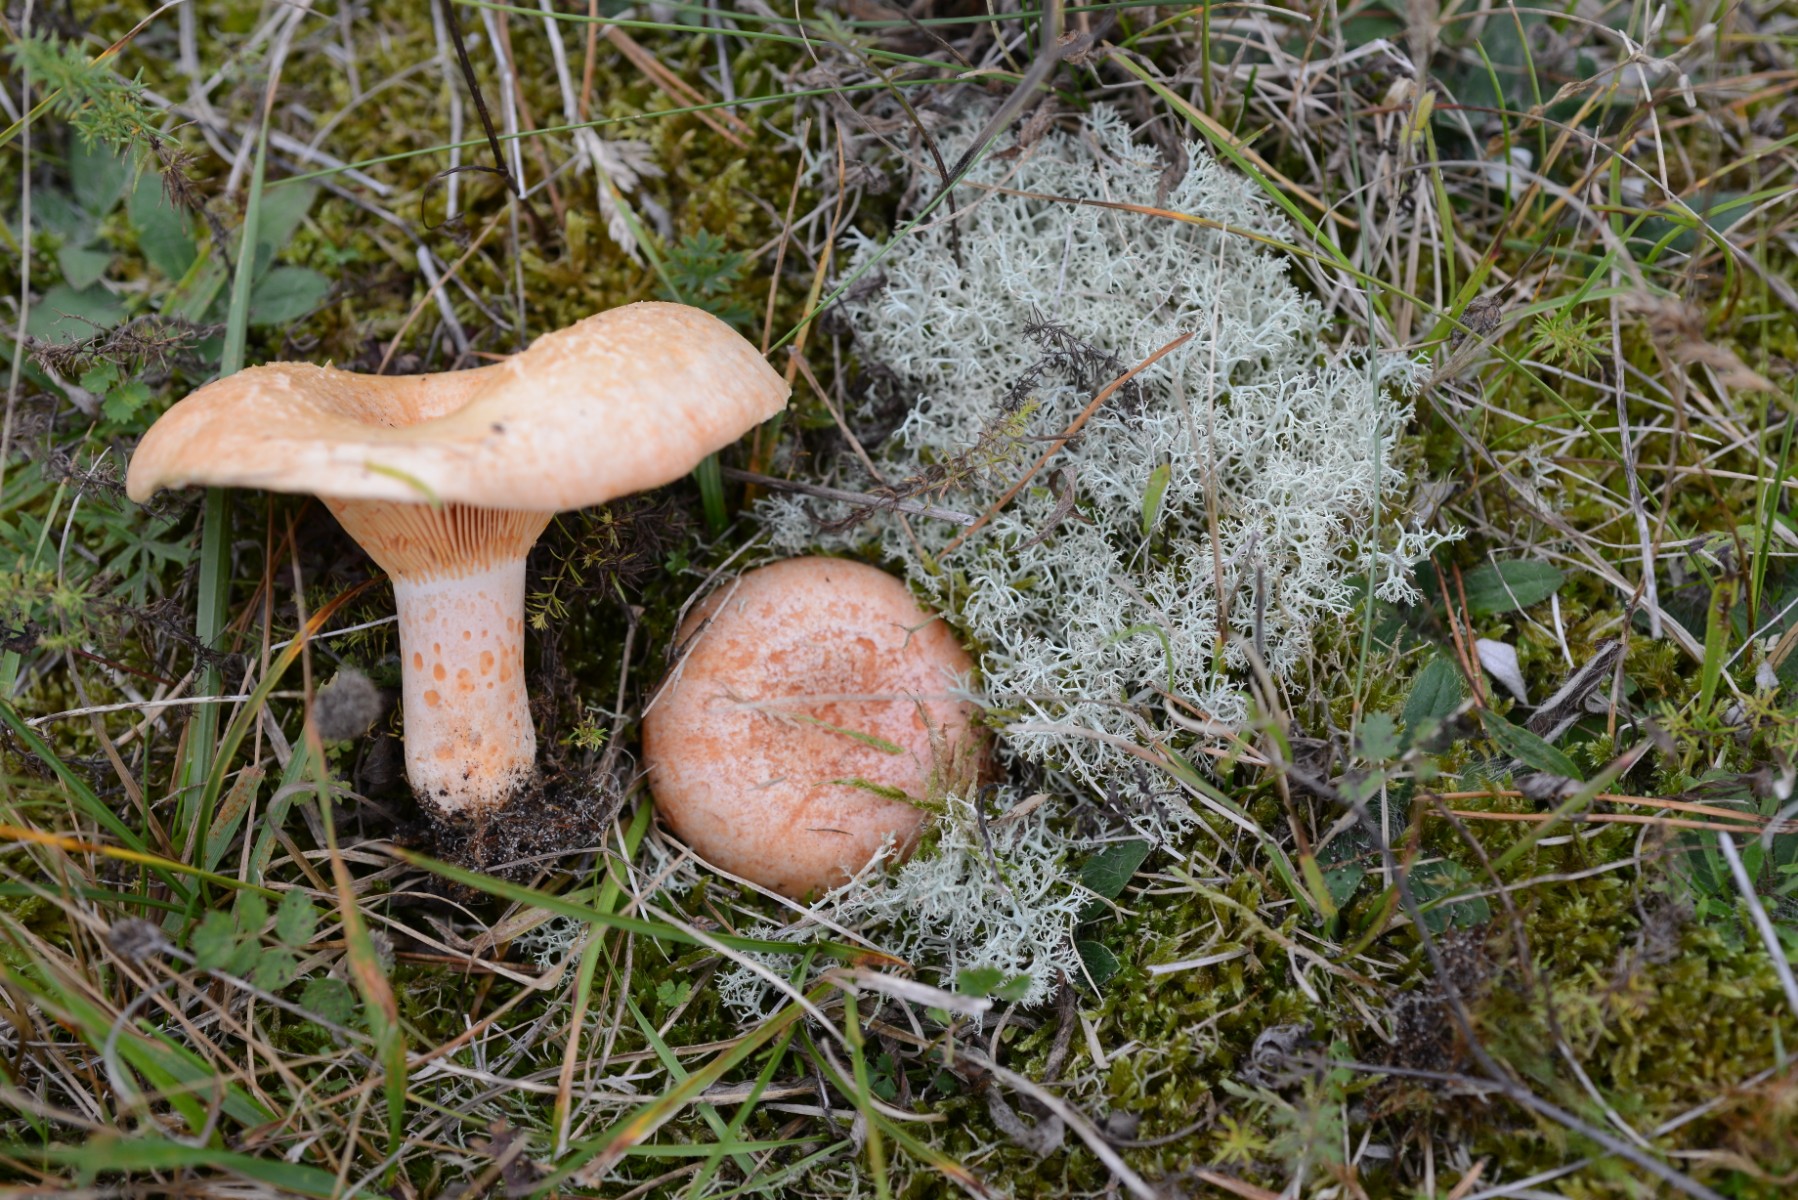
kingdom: Fungi
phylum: Basidiomycota
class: Agaricomycetes
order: Russulales
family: Russulaceae
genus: Lactarius
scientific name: Lactarius deliciosus
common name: velsmagende mælkehat
